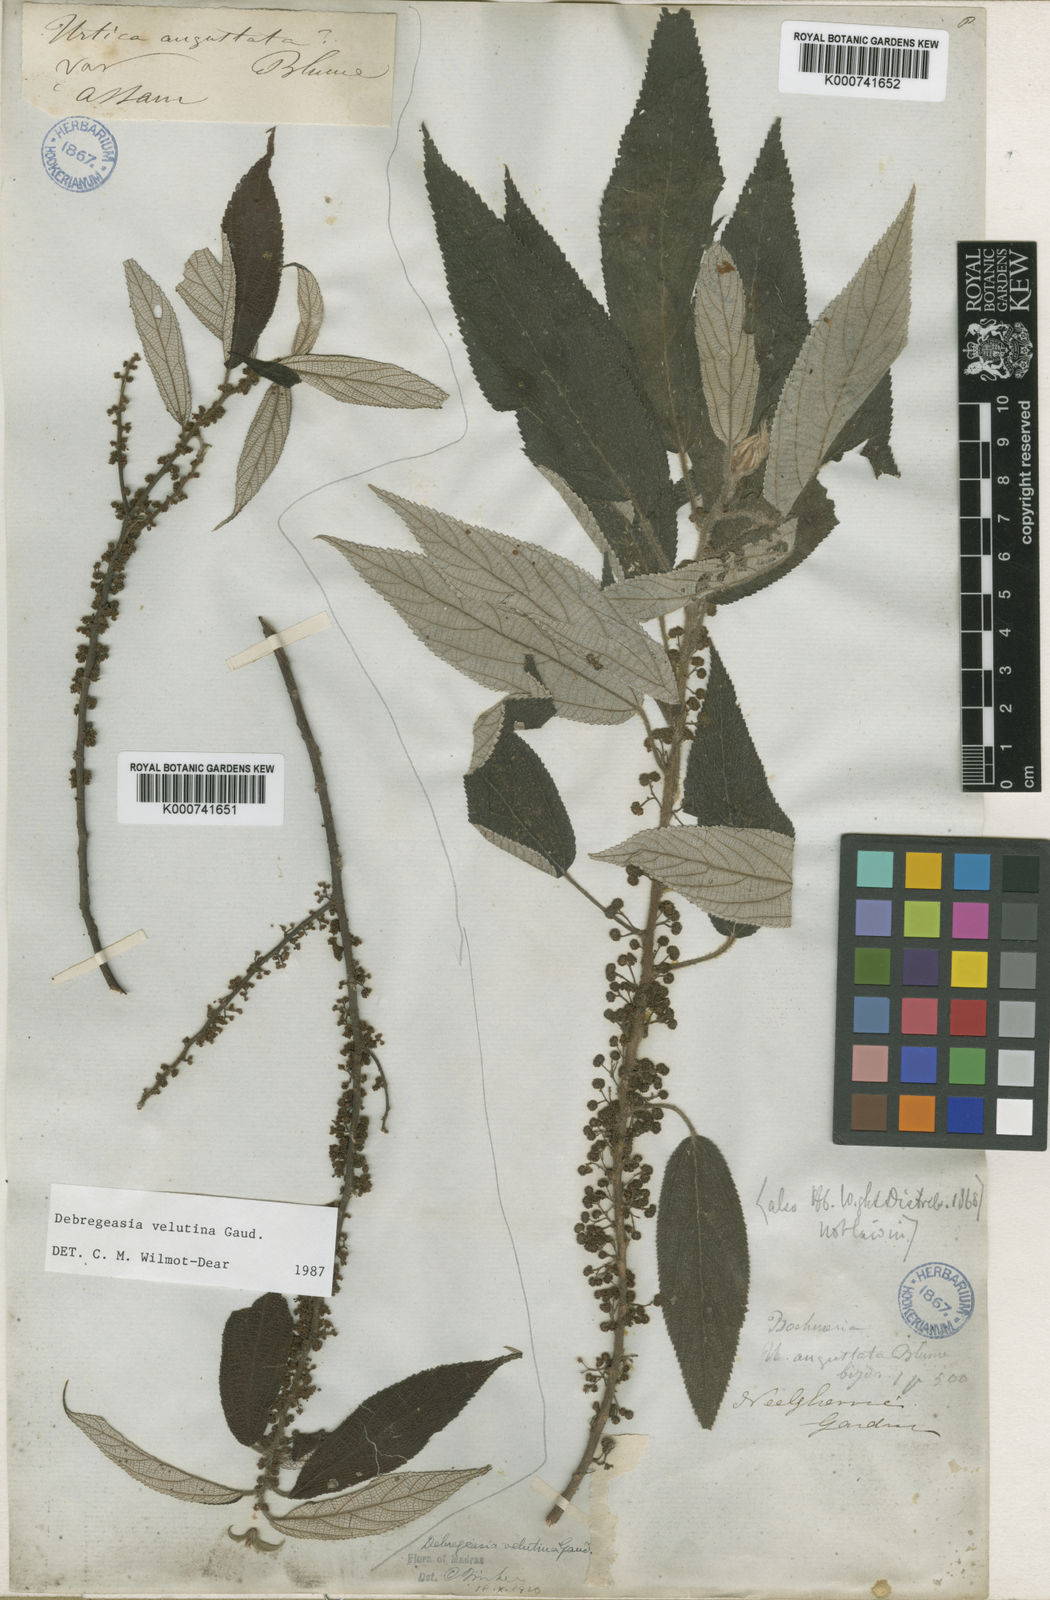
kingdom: Plantae
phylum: Tracheophyta
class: Magnoliopsida
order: Rosales
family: Urticaceae
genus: Debregeasia
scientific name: Debregeasia longifolia
